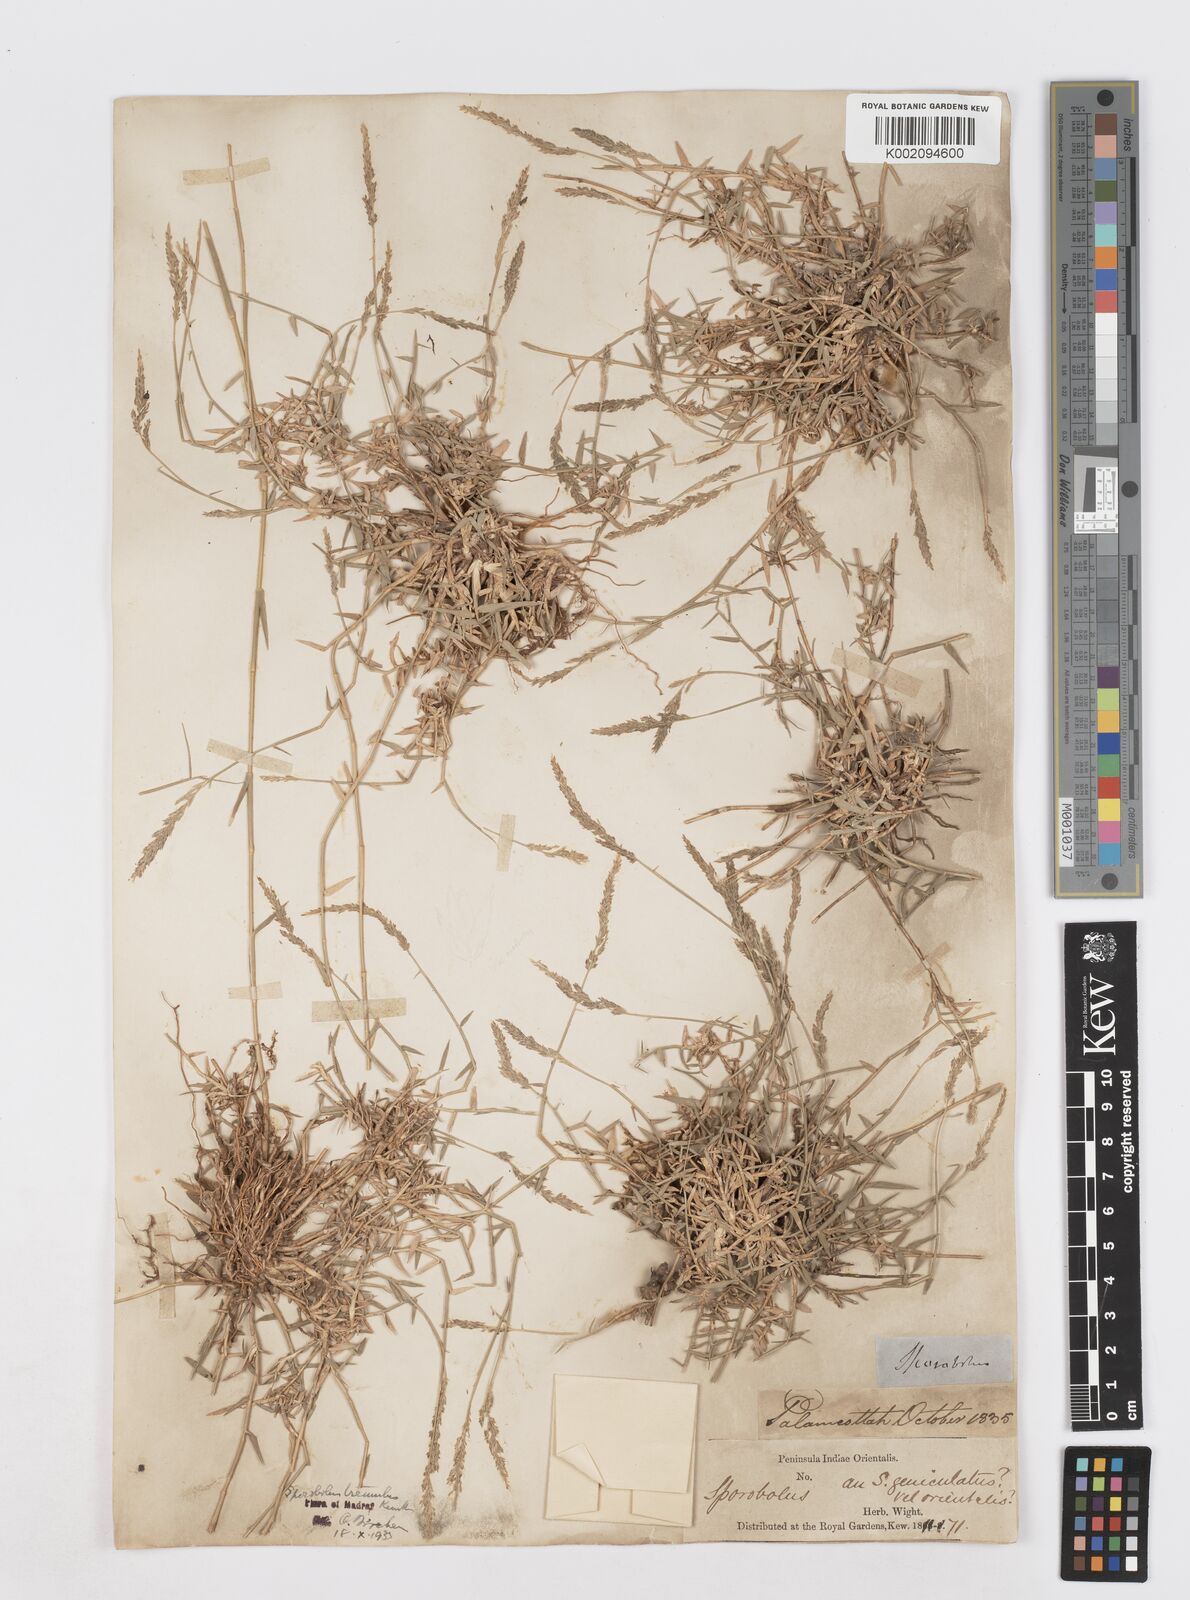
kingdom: Plantae
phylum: Tracheophyta
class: Liliopsida
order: Poales
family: Poaceae
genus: Sporobolus
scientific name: Sporobolus virginicus
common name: Beach dropseed
